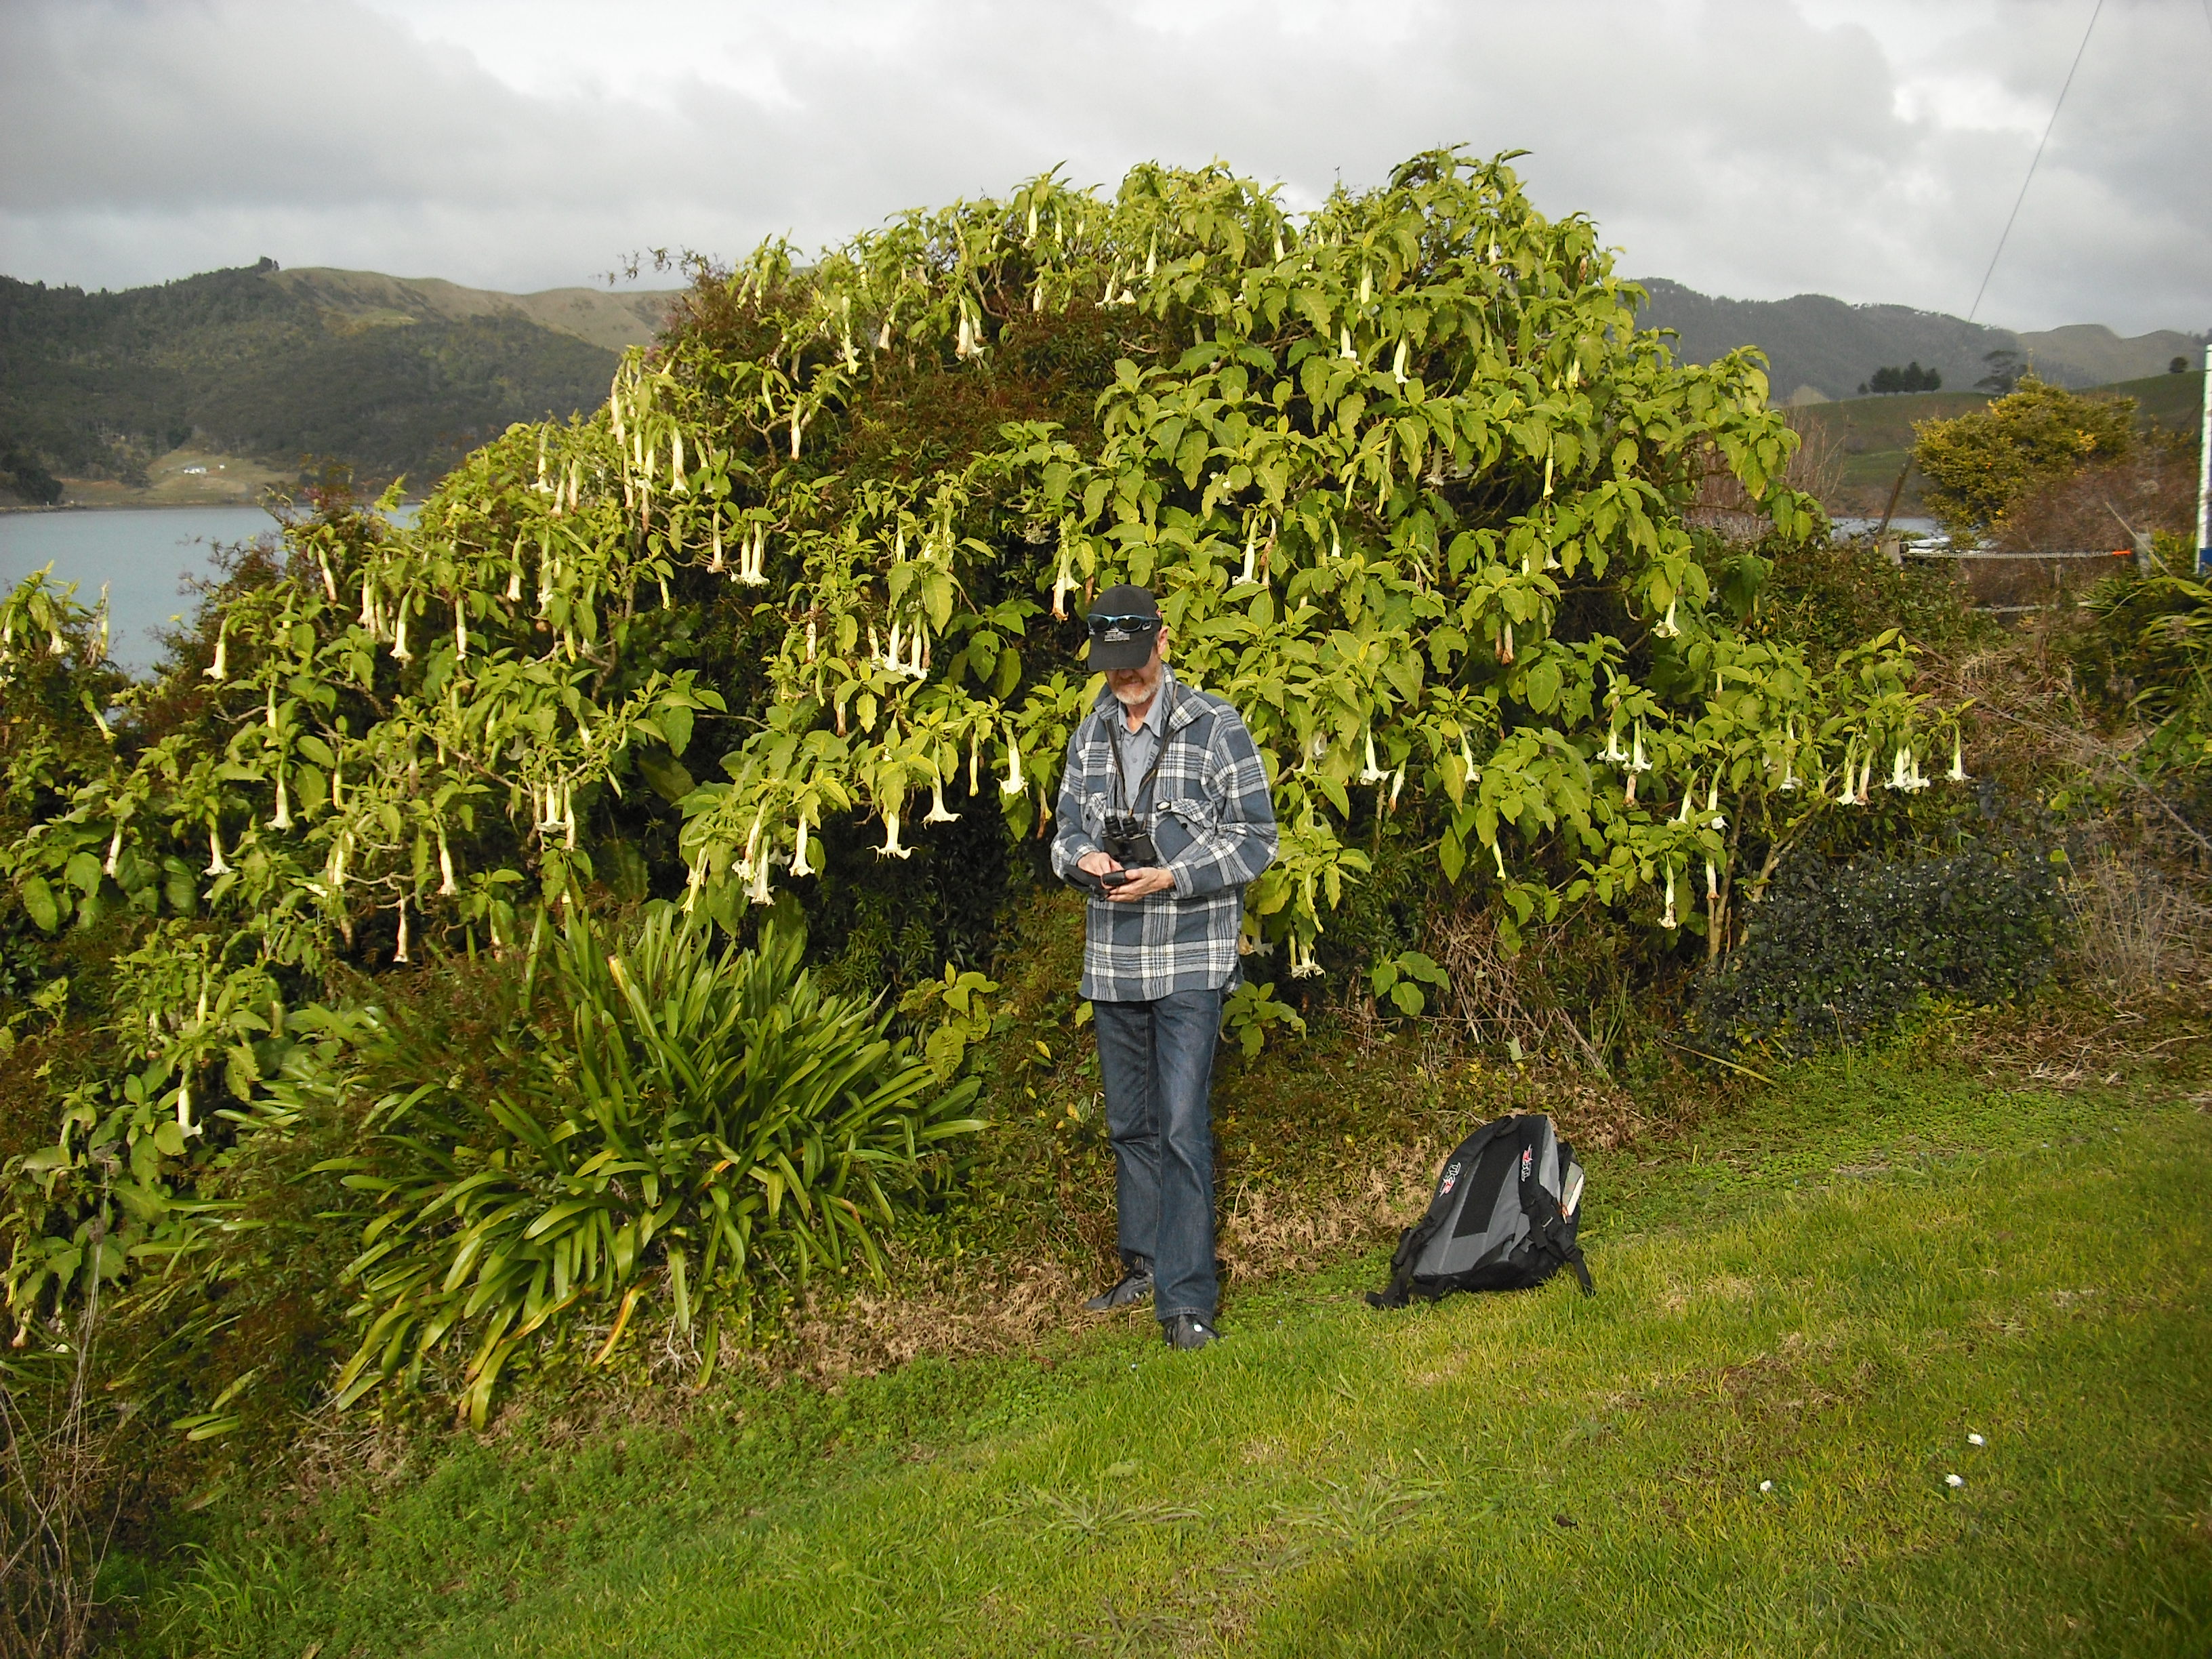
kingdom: Plantae
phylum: Tracheophyta
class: Magnoliopsida
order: Solanales
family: Solanaceae
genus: Brugmansia
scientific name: Brugmansia candida
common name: Angel's-trumpet
